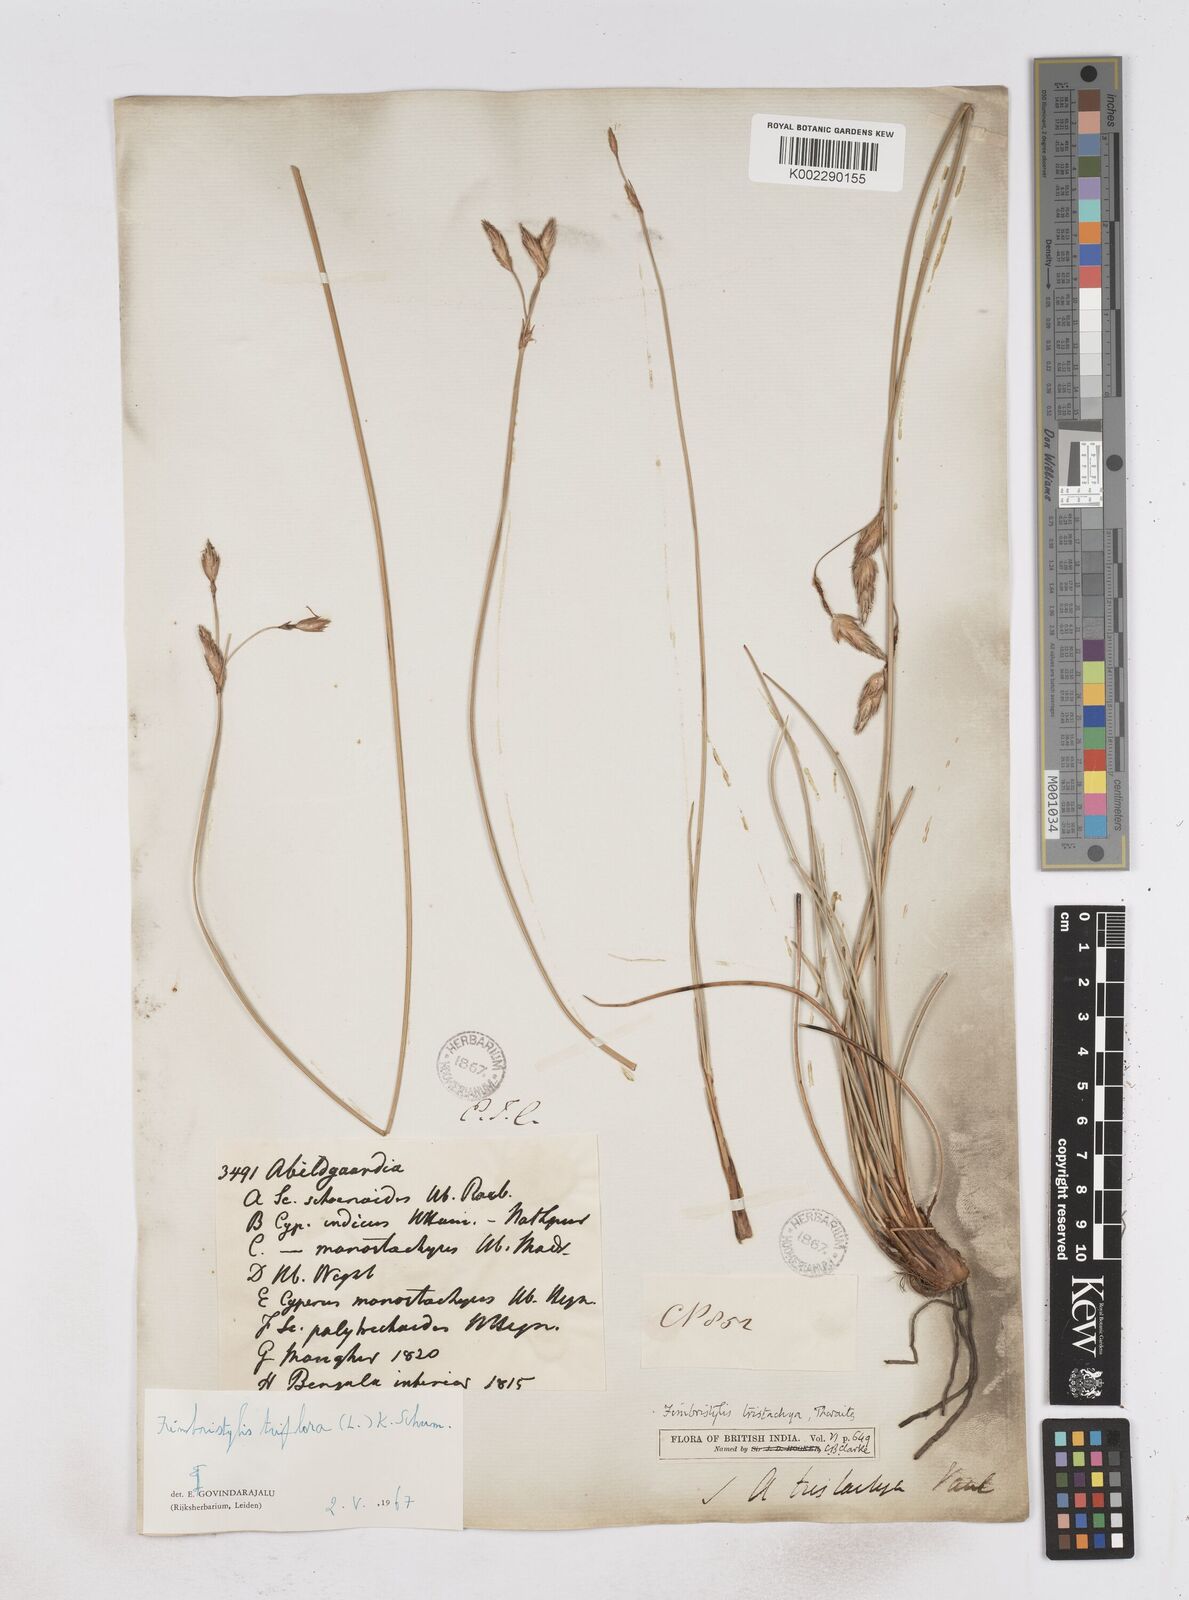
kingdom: Plantae
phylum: Tracheophyta
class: Liliopsida
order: Poales
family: Cyperaceae
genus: Abildgaardia
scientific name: Abildgaardia triflora
